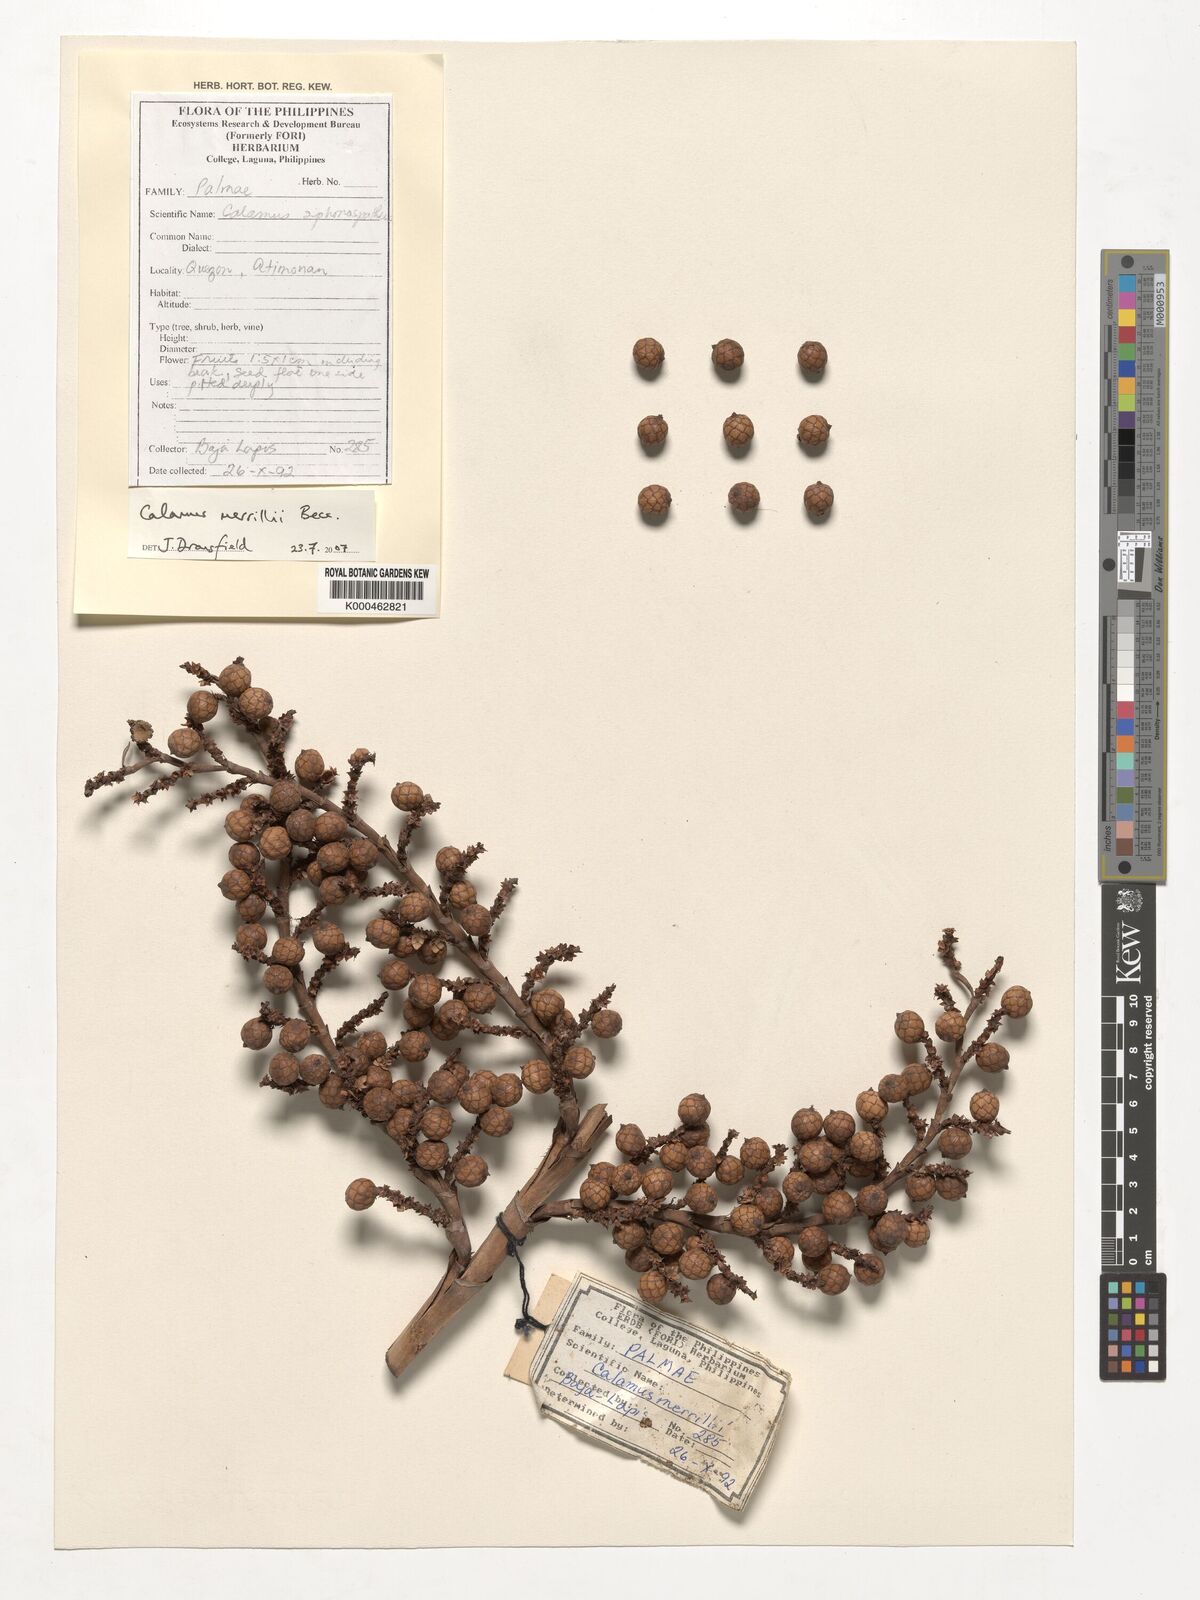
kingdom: Plantae
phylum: Tracheophyta
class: Liliopsida
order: Arecales
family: Arecaceae
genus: Calamus
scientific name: Calamus zollingeri
